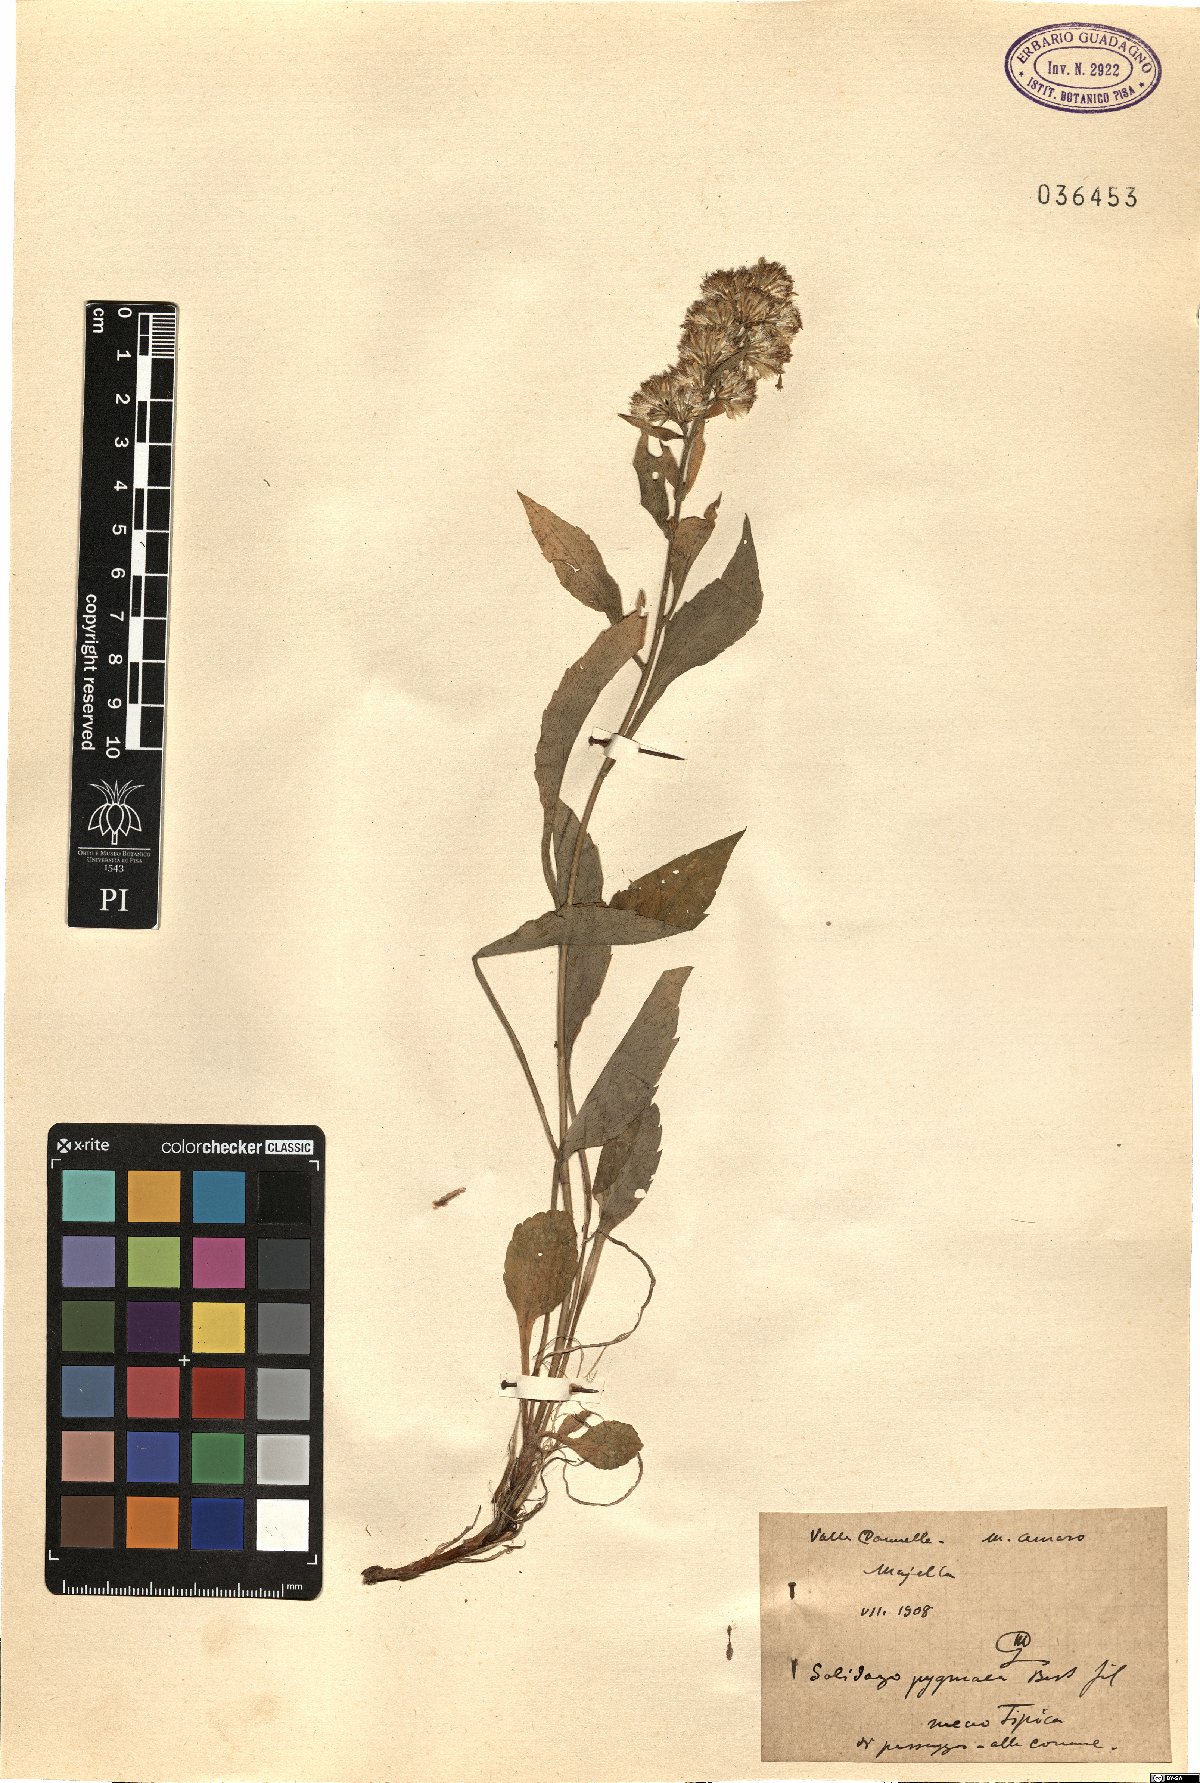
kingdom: Plantae
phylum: Tracheophyta
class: Magnoliopsida
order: Asterales
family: Asteraceae
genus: Solidago
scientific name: Solidago virgaurea
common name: Goldenrod
